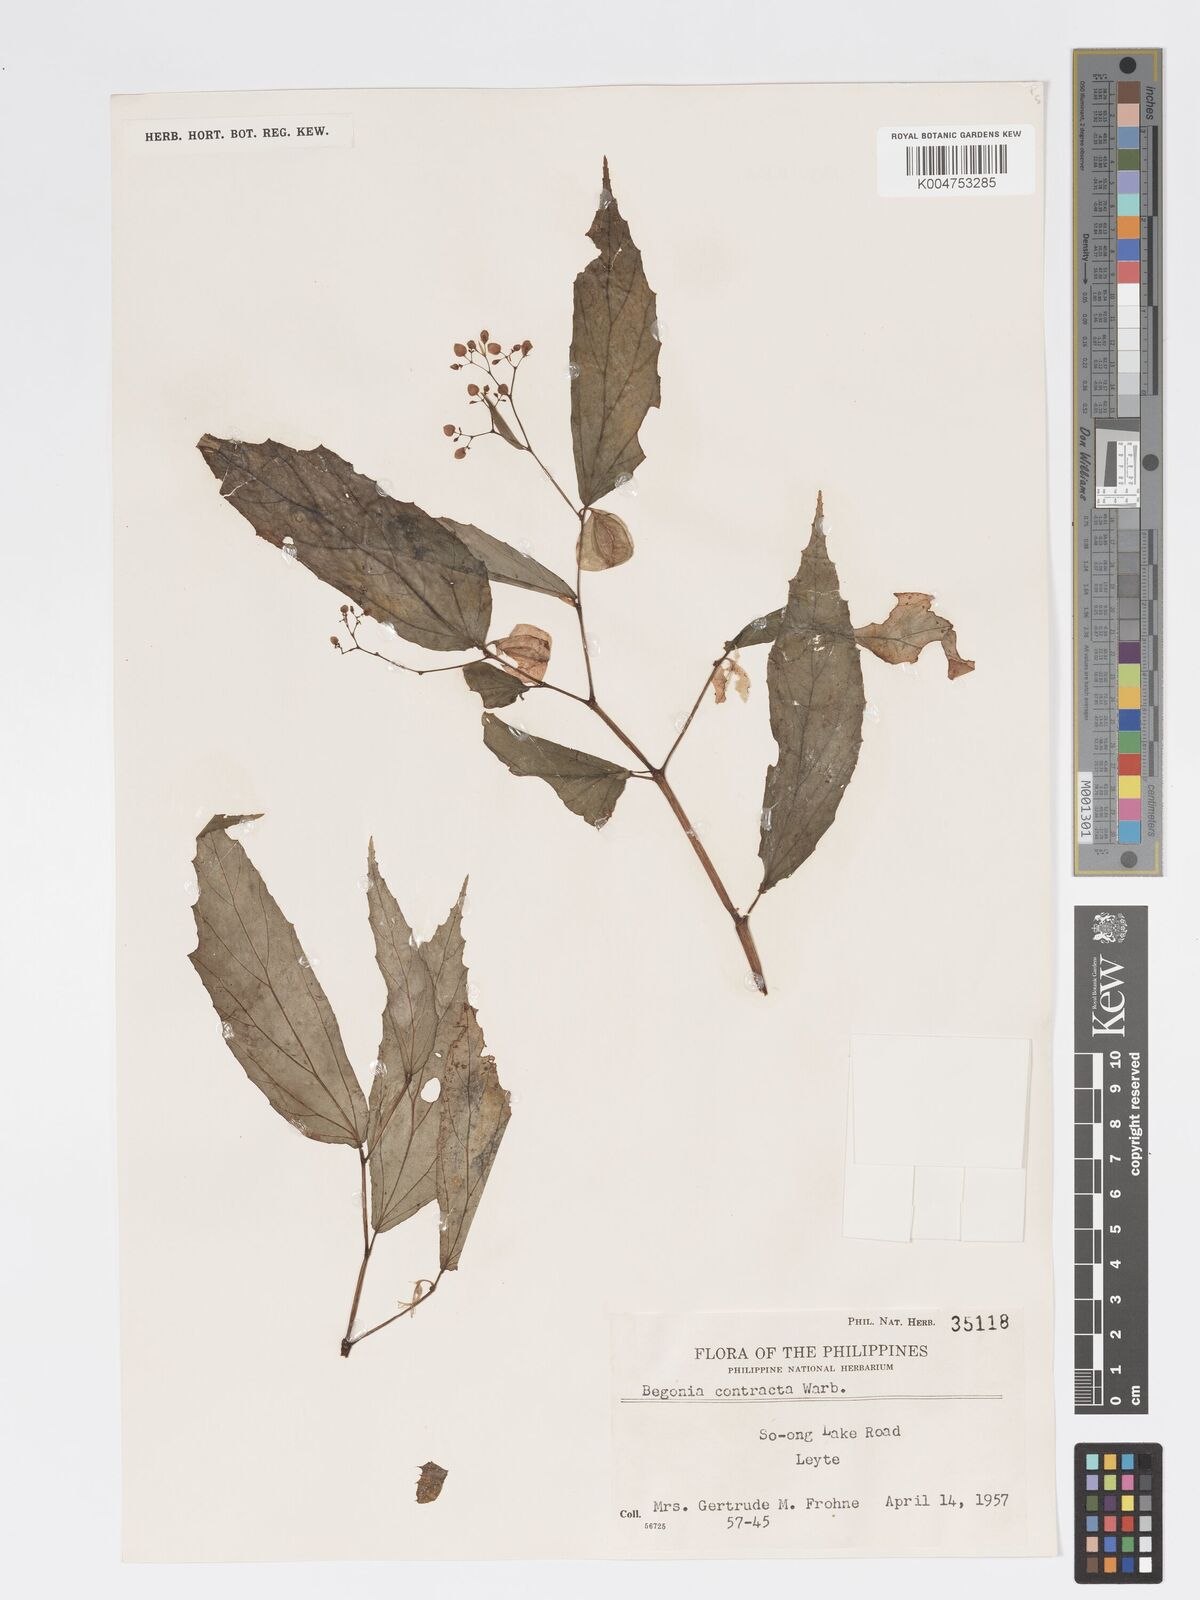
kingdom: Plantae
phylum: Tracheophyta
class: Magnoliopsida
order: Cucurbitales
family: Begoniaceae
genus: Begonia
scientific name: Begonia contracta
